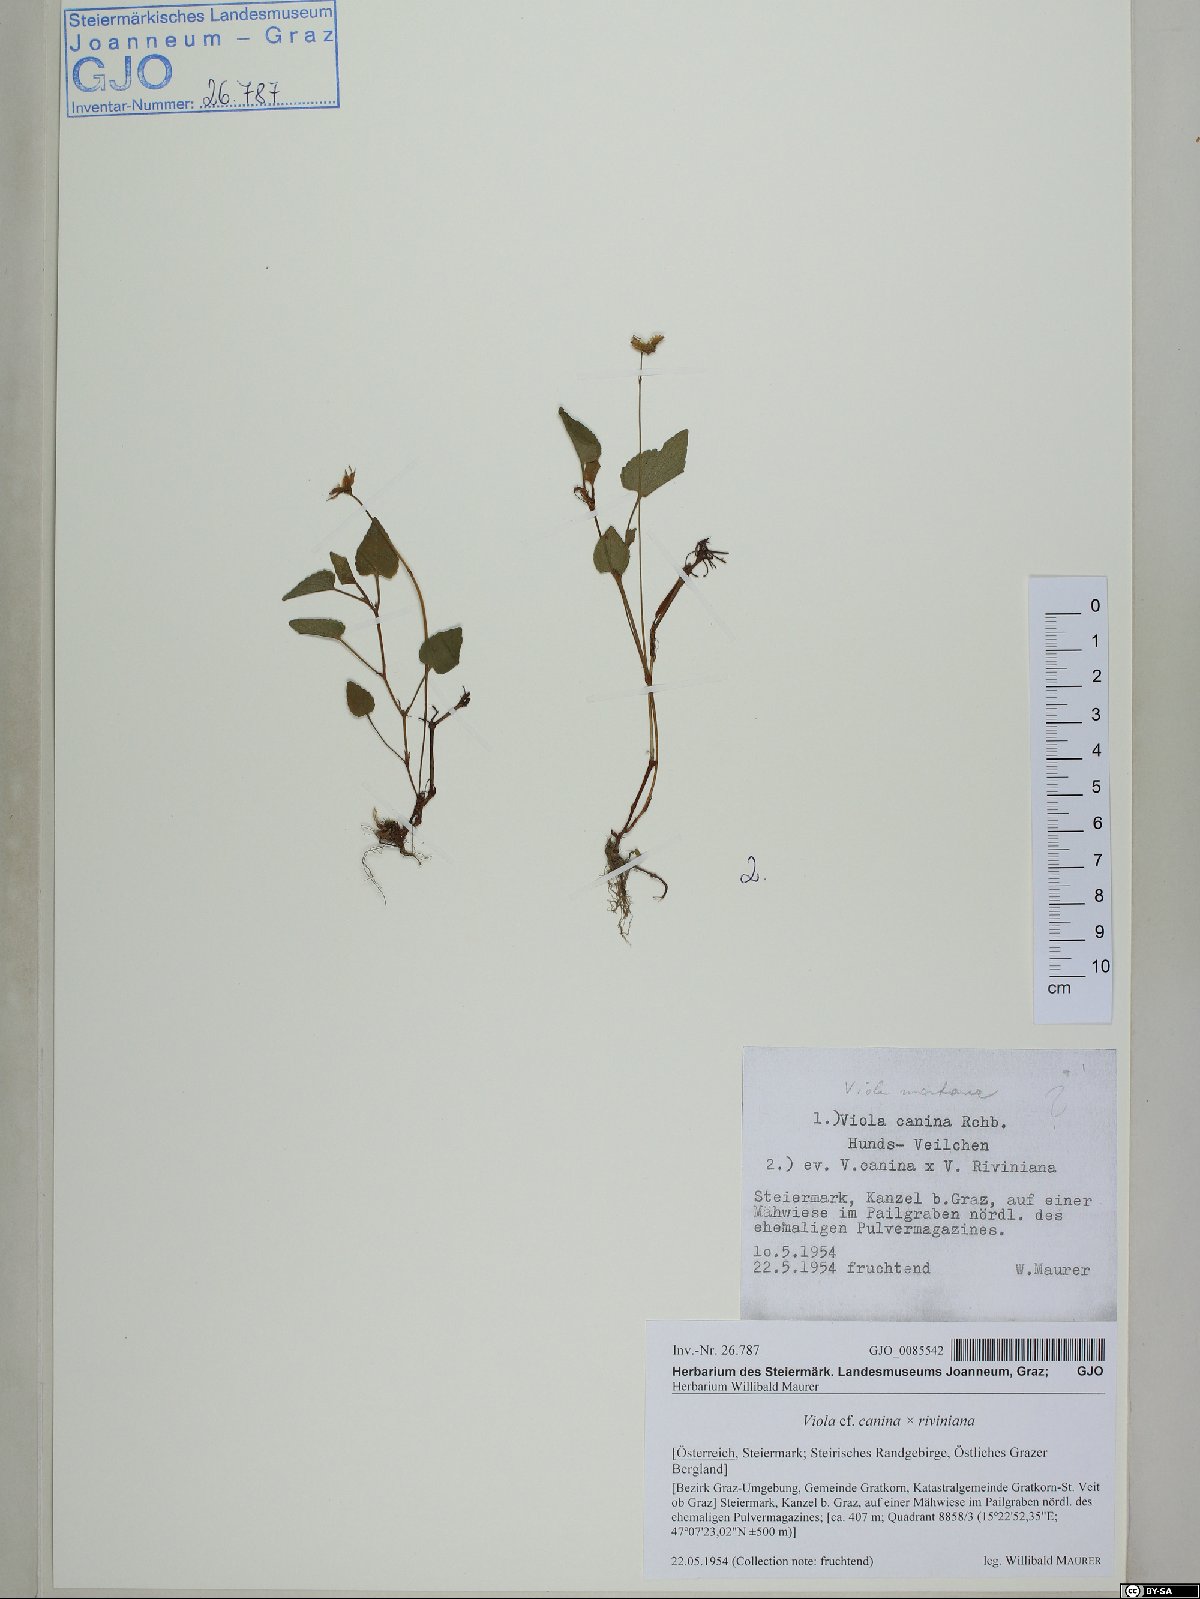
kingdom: Plantae
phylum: Tracheophyta
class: Magnoliopsida
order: Malpighiales
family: Violaceae
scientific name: Violaceae
